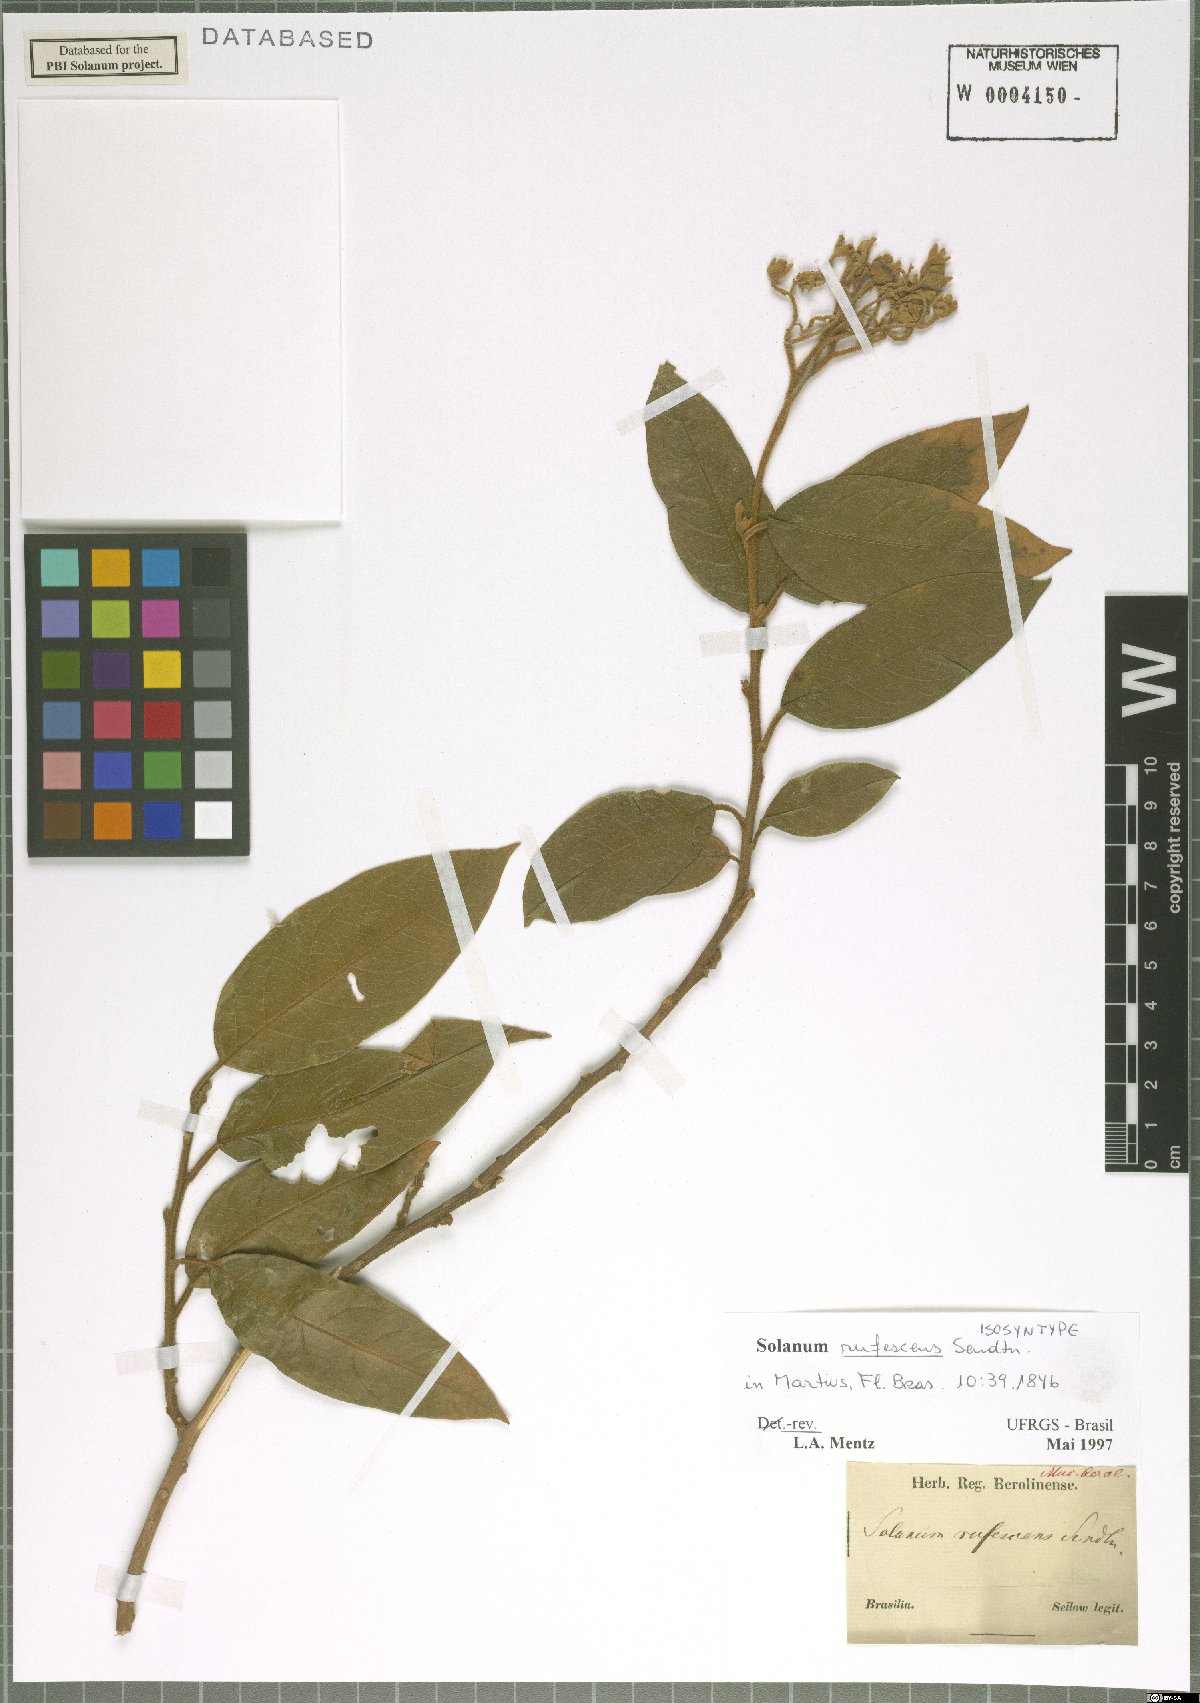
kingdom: Plantae
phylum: Tracheophyta
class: Magnoliopsida
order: Solanales
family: Solanaceae
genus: Solanum
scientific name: Solanum rufescens
